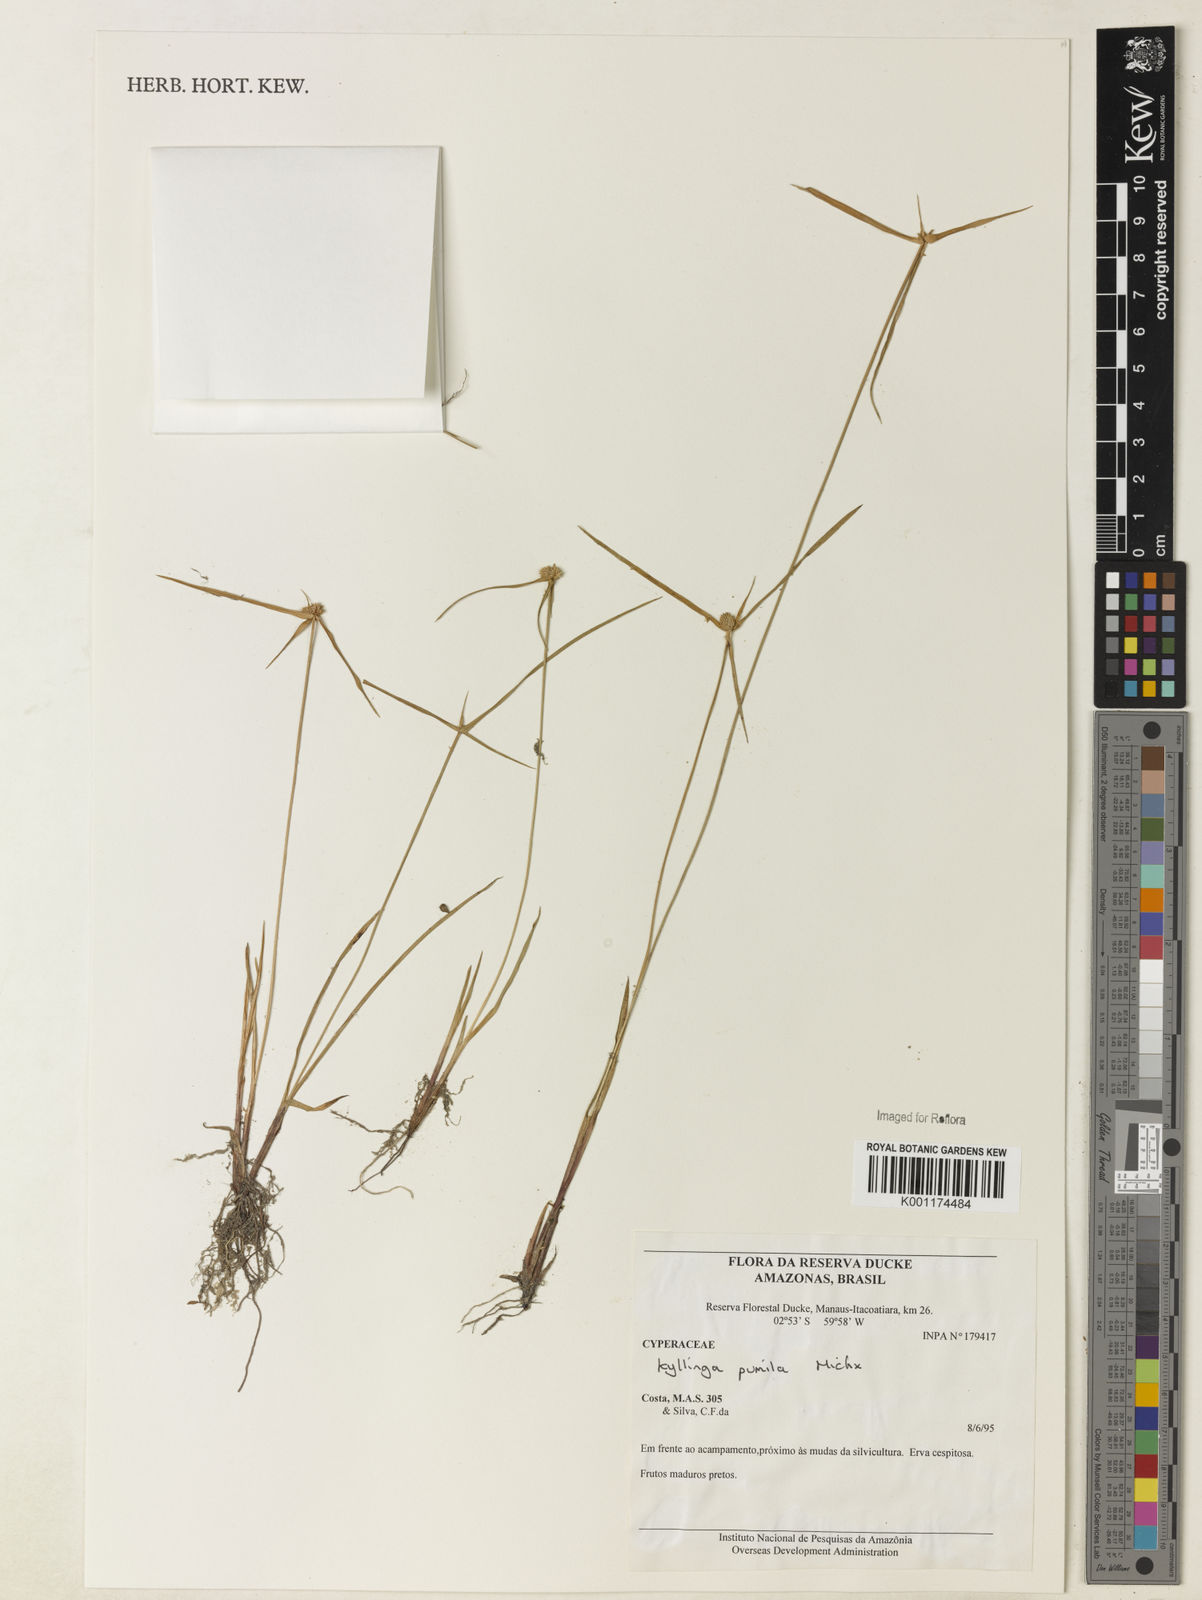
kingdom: Plantae
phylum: Tracheophyta
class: Liliopsida
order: Poales
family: Cyperaceae
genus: Cyperus
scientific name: Cyperus
